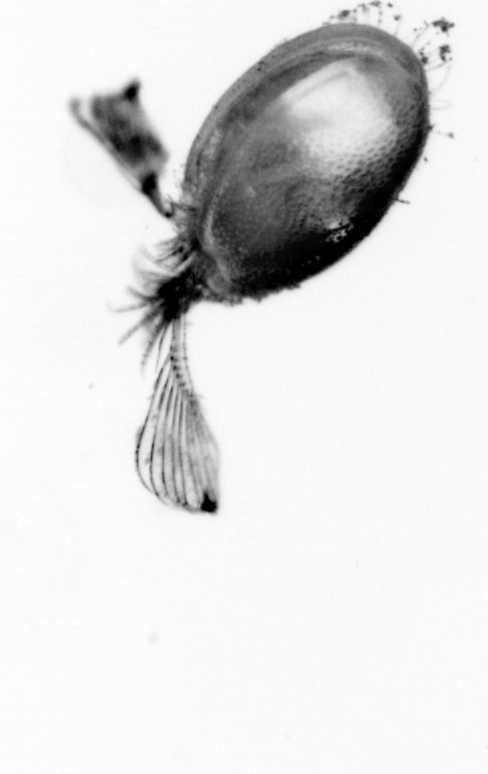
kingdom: Animalia
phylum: Annelida
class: Polychaeta
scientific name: Polychaeta
